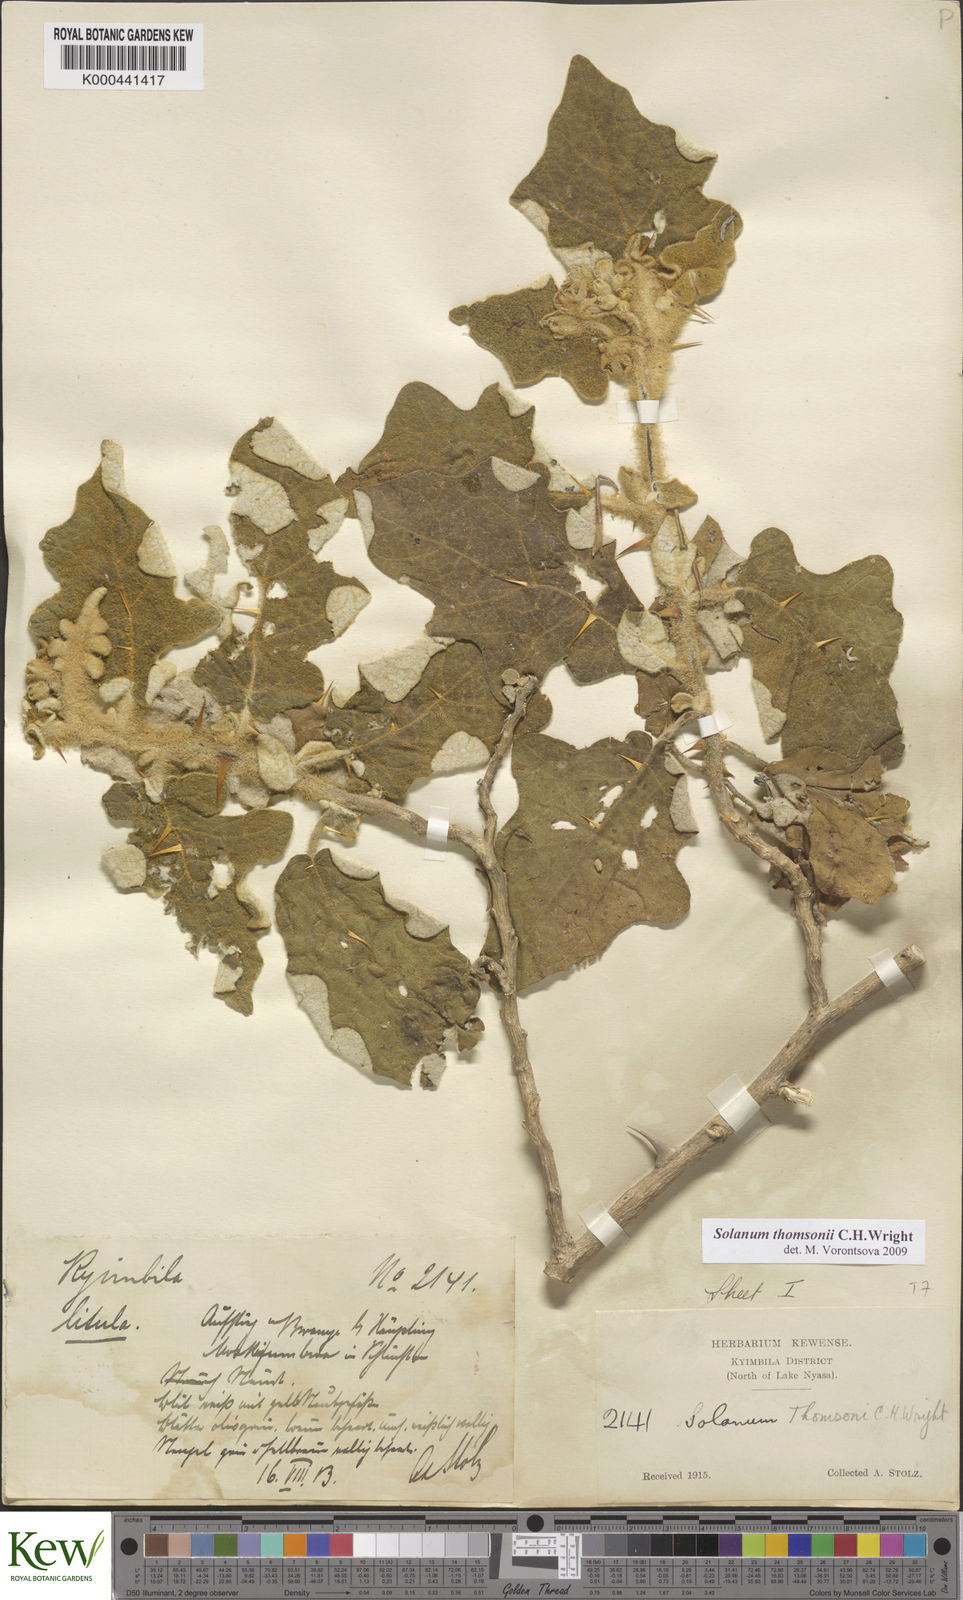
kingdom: Plantae
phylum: Tracheophyta
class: Magnoliopsida
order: Solanales
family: Solanaceae
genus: Solanum
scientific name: Solanum aculeastrum
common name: Goat bitter-apple
